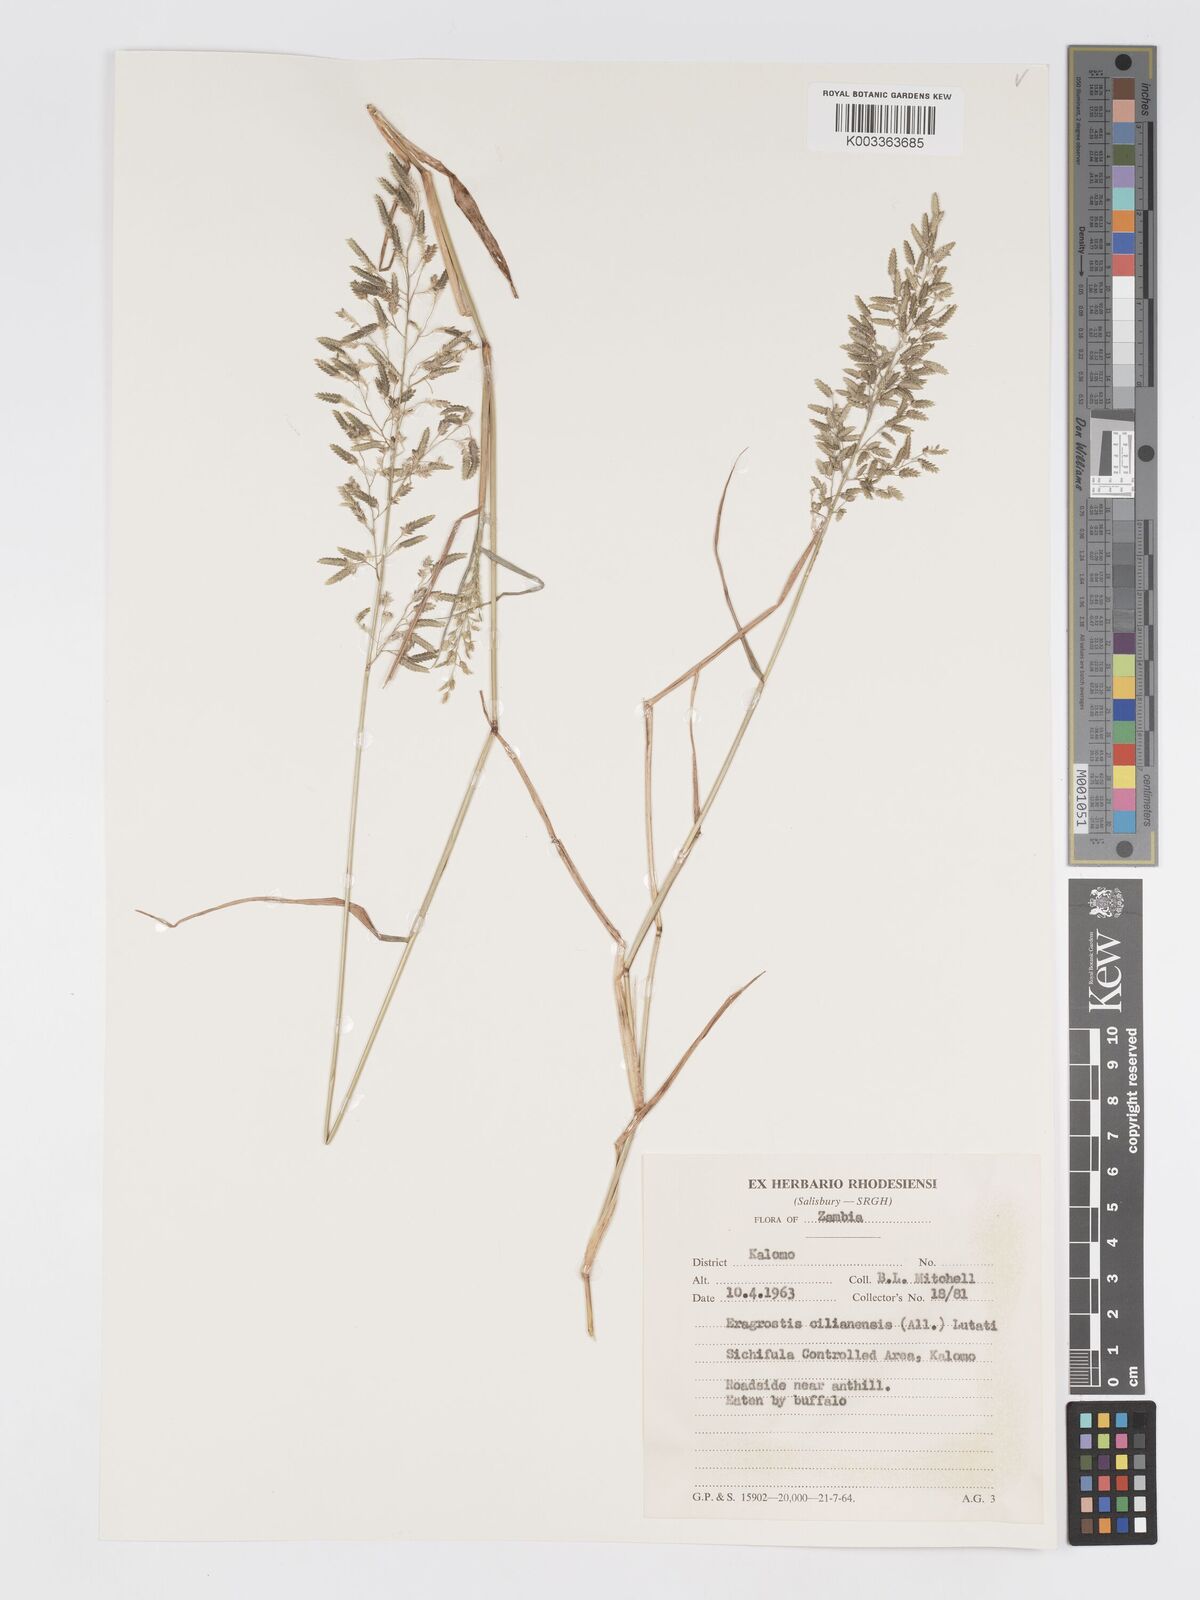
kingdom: Plantae
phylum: Tracheophyta
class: Liliopsida
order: Poales
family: Poaceae
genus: Eragrostis
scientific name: Eragrostis cilianensis
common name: Stinkgrass
